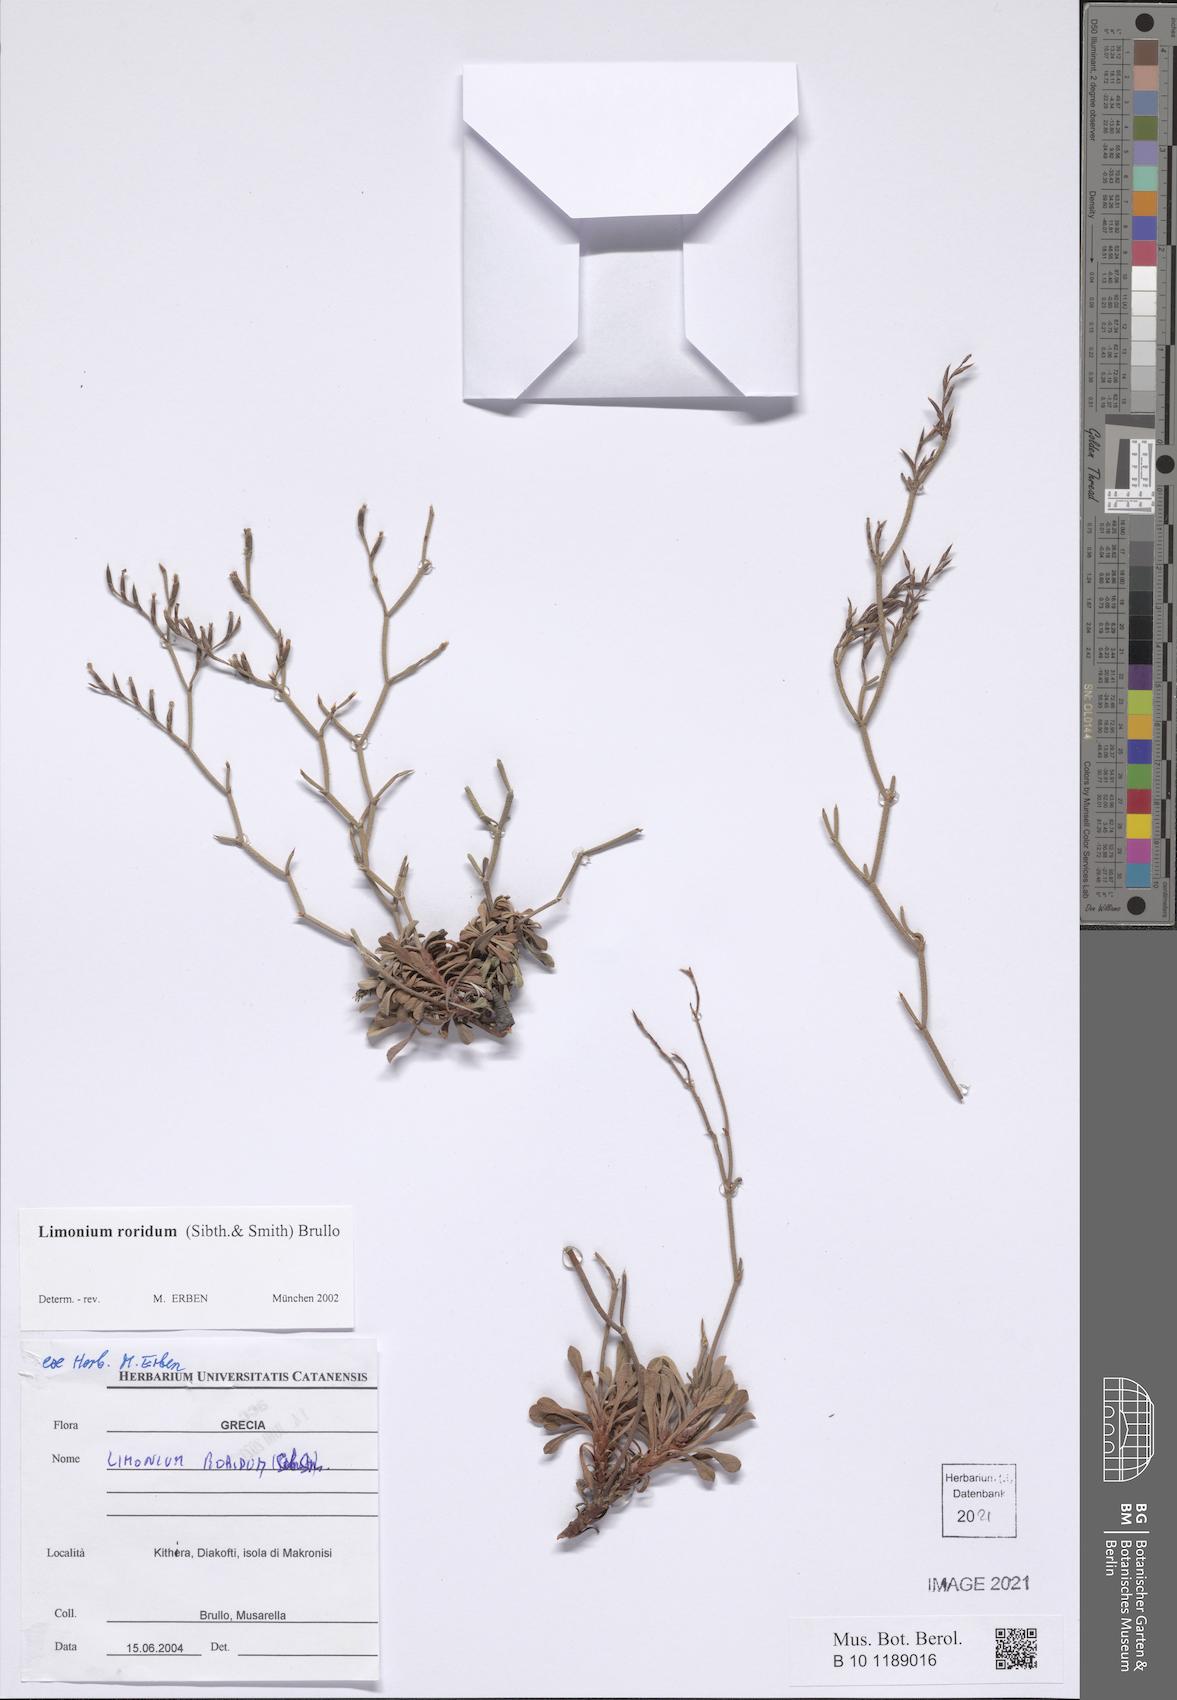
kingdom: Plantae
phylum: Tracheophyta
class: Magnoliopsida
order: Caryophyllales
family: Plumbaginaceae
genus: Limonium
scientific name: Limonium roridum
